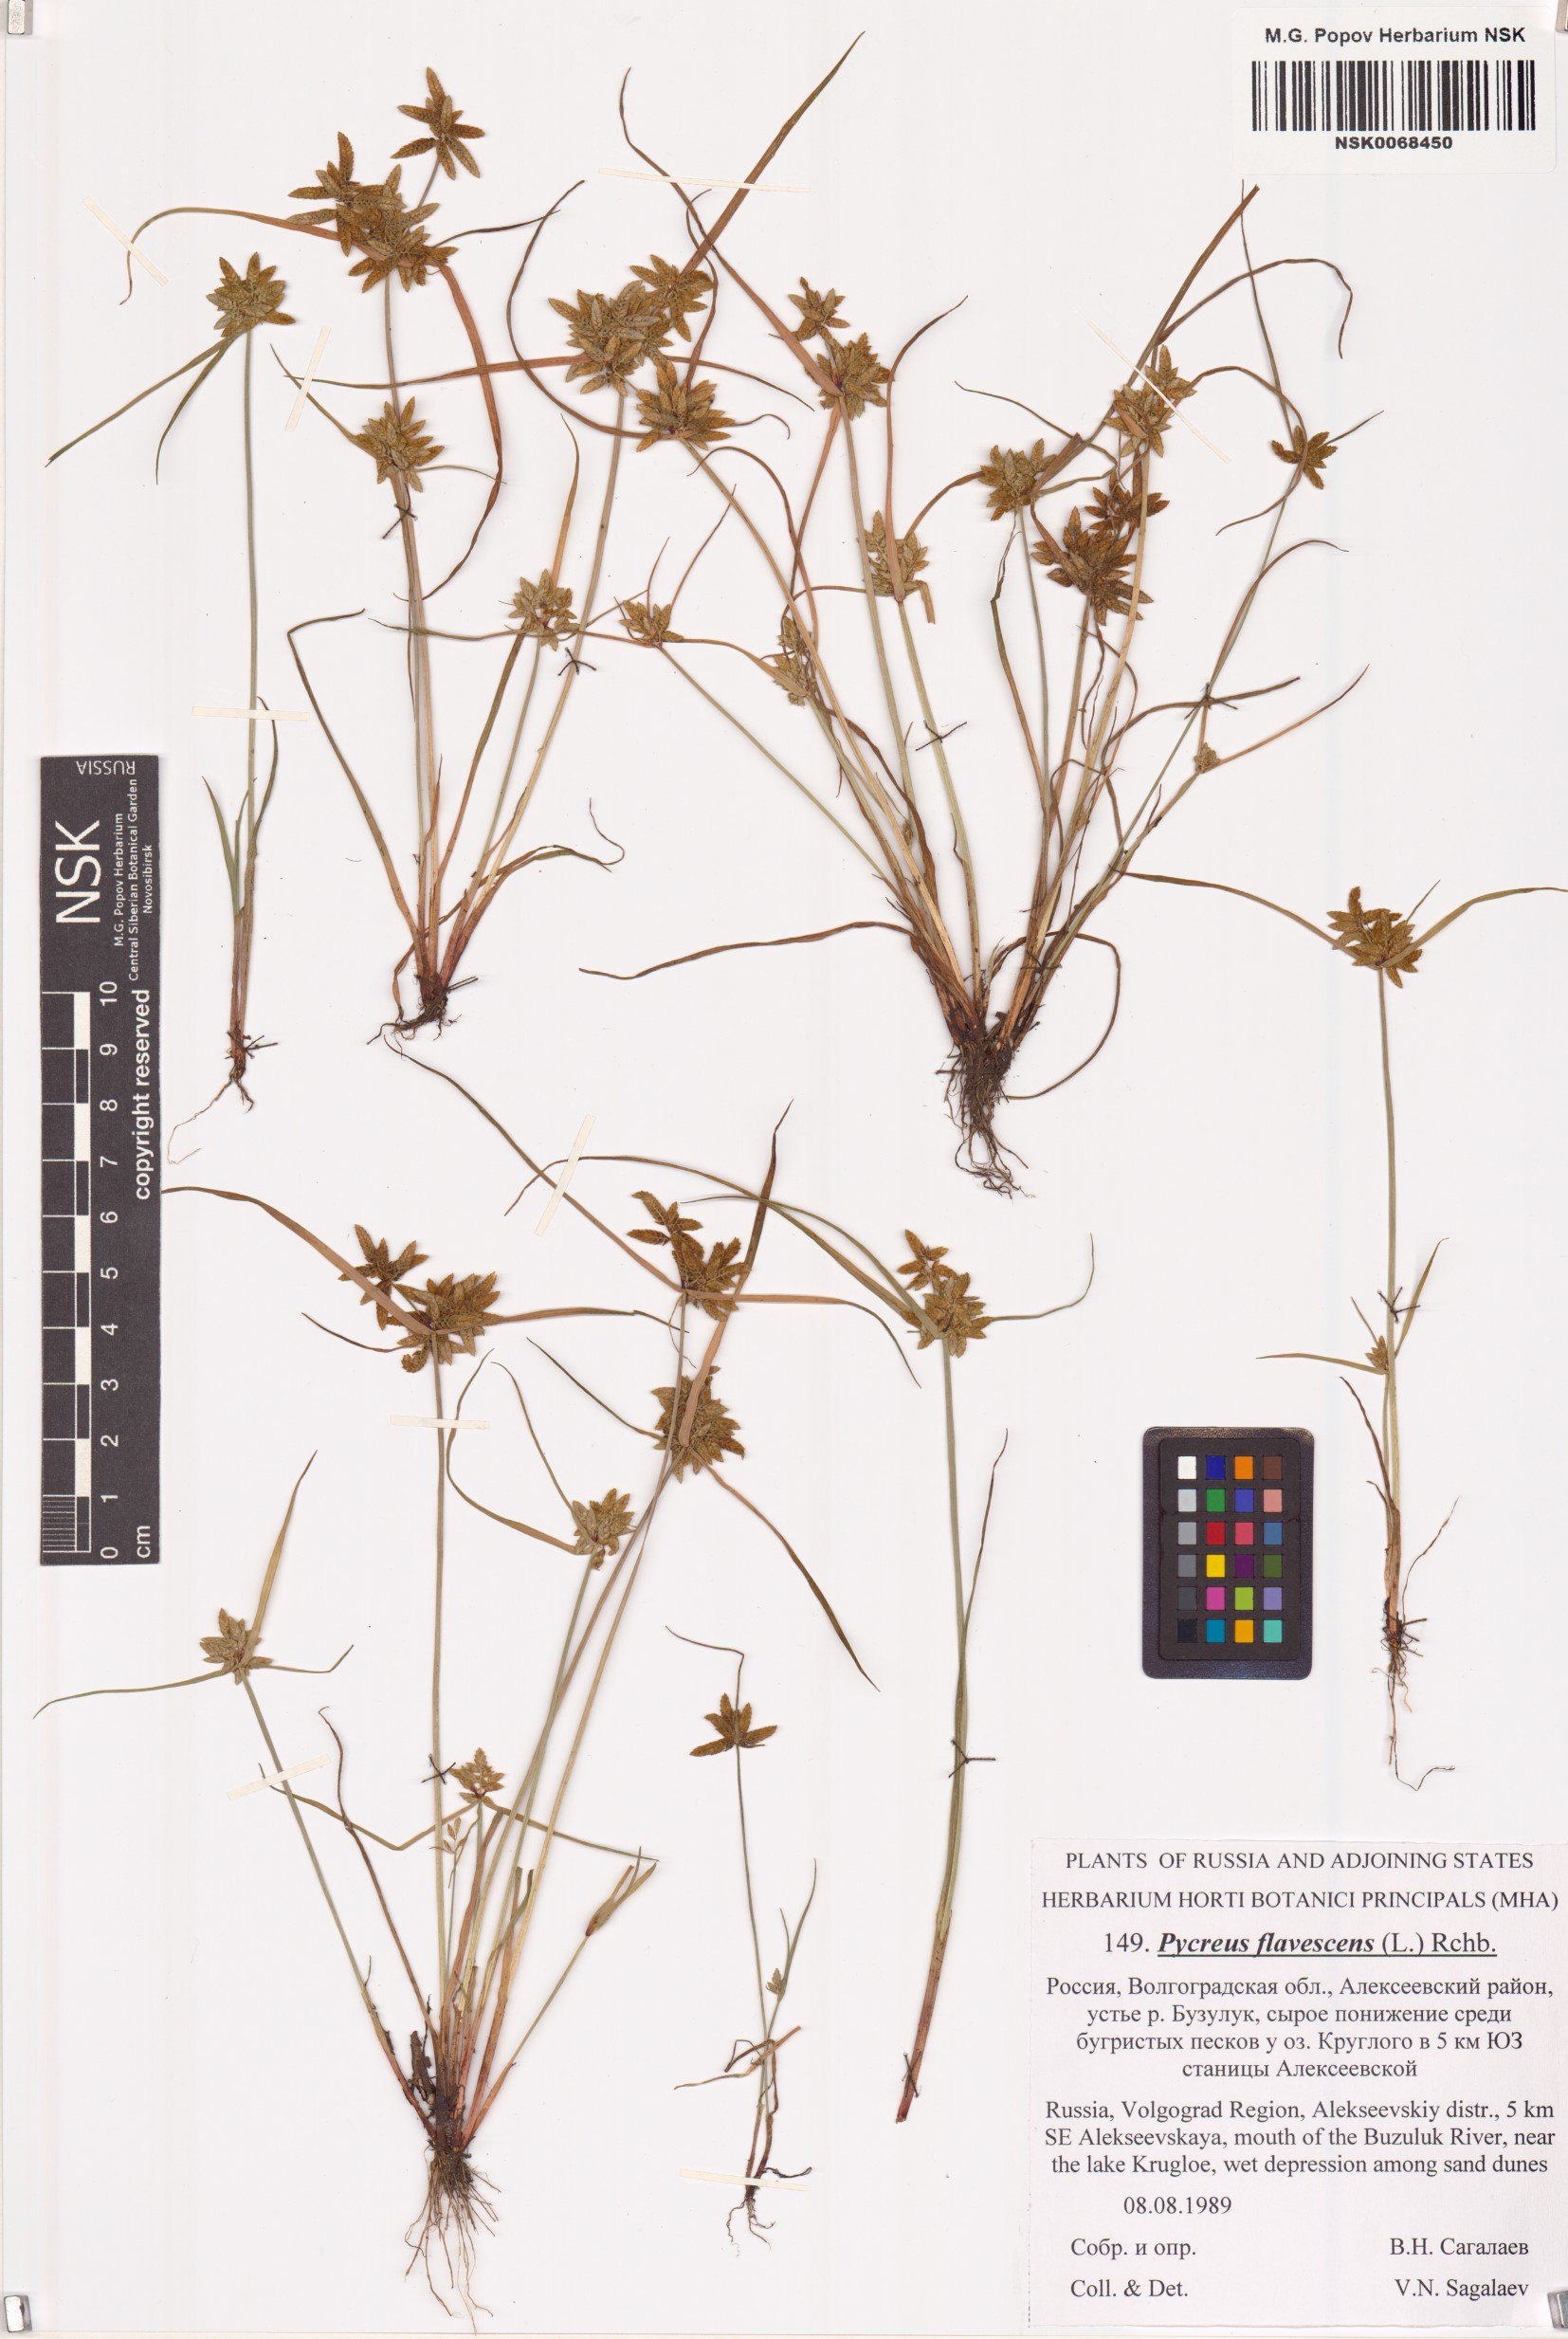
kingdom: Plantae
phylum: Tracheophyta
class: Liliopsida
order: Poales
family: Cyperaceae
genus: Cyperus
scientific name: Cyperus flavescens
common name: Yellow galingale
